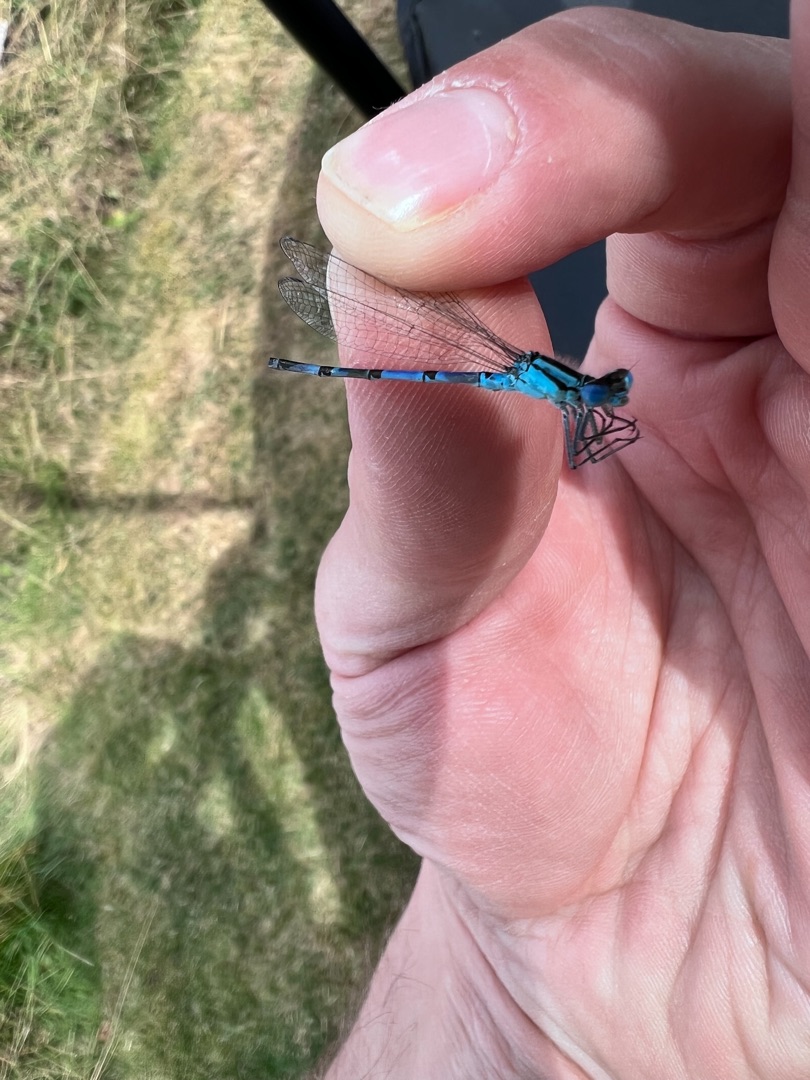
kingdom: Animalia
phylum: Arthropoda
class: Insecta
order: Odonata
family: Coenagrionidae
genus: Enallagma
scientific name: Enallagma cyathigerum
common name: Almindelig vandnymfe
